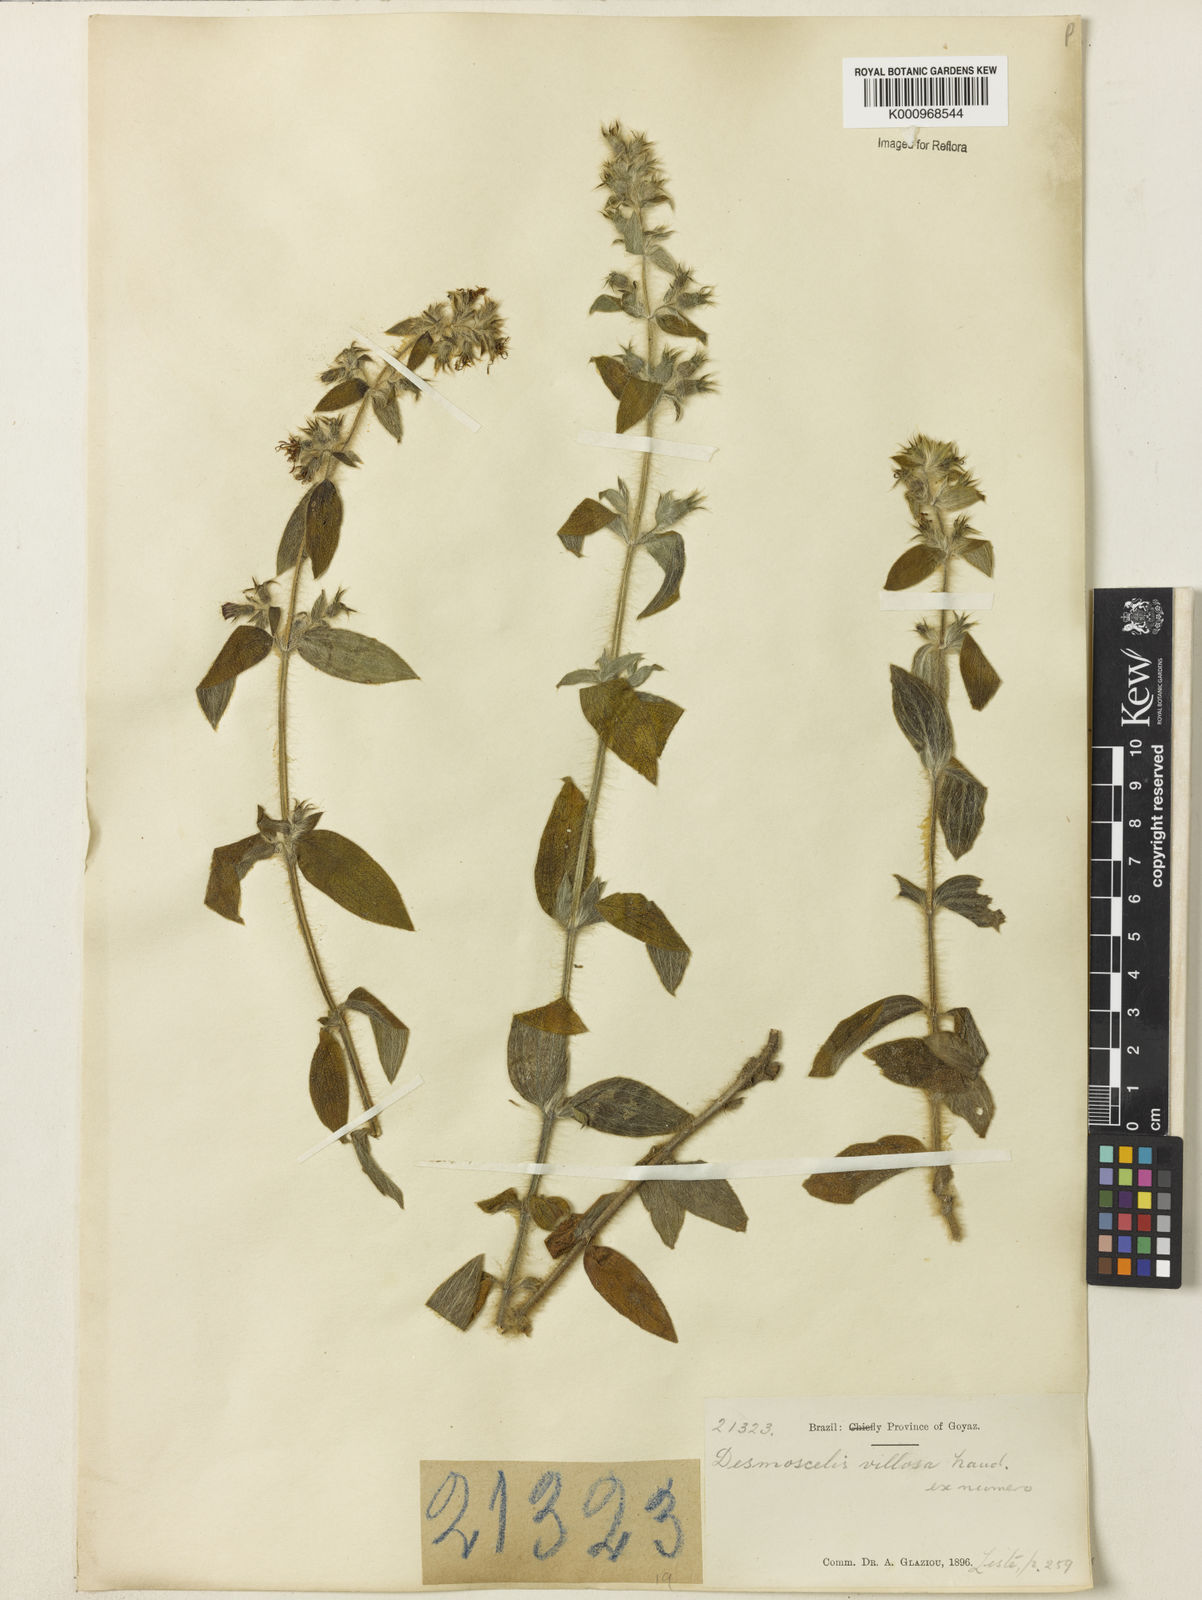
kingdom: Plantae
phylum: Tracheophyta
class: Magnoliopsida
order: Myrtales
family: Melastomataceae
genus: Desmoscelis
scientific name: Desmoscelis villosa
